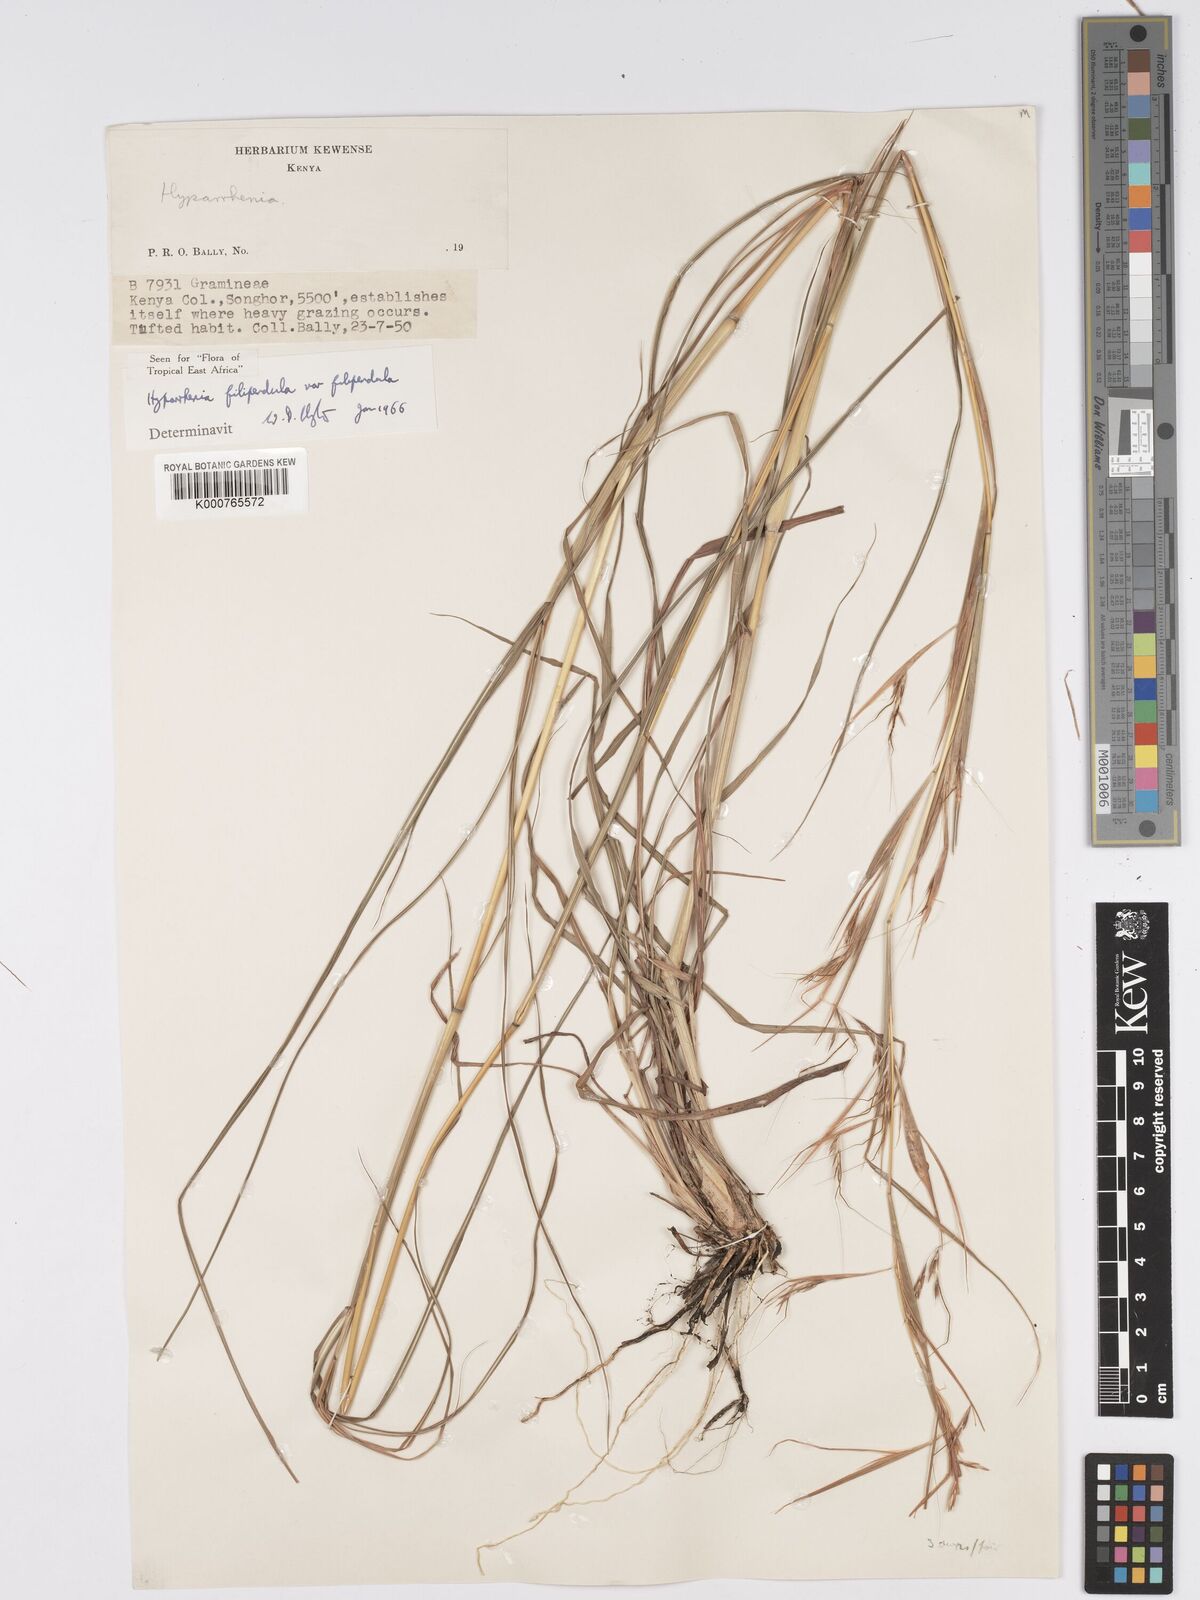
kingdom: Plantae
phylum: Tracheophyta
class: Liliopsida
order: Poales
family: Poaceae
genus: Hyparrhenia
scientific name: Hyparrhenia filipendula
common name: Tambookie grass
